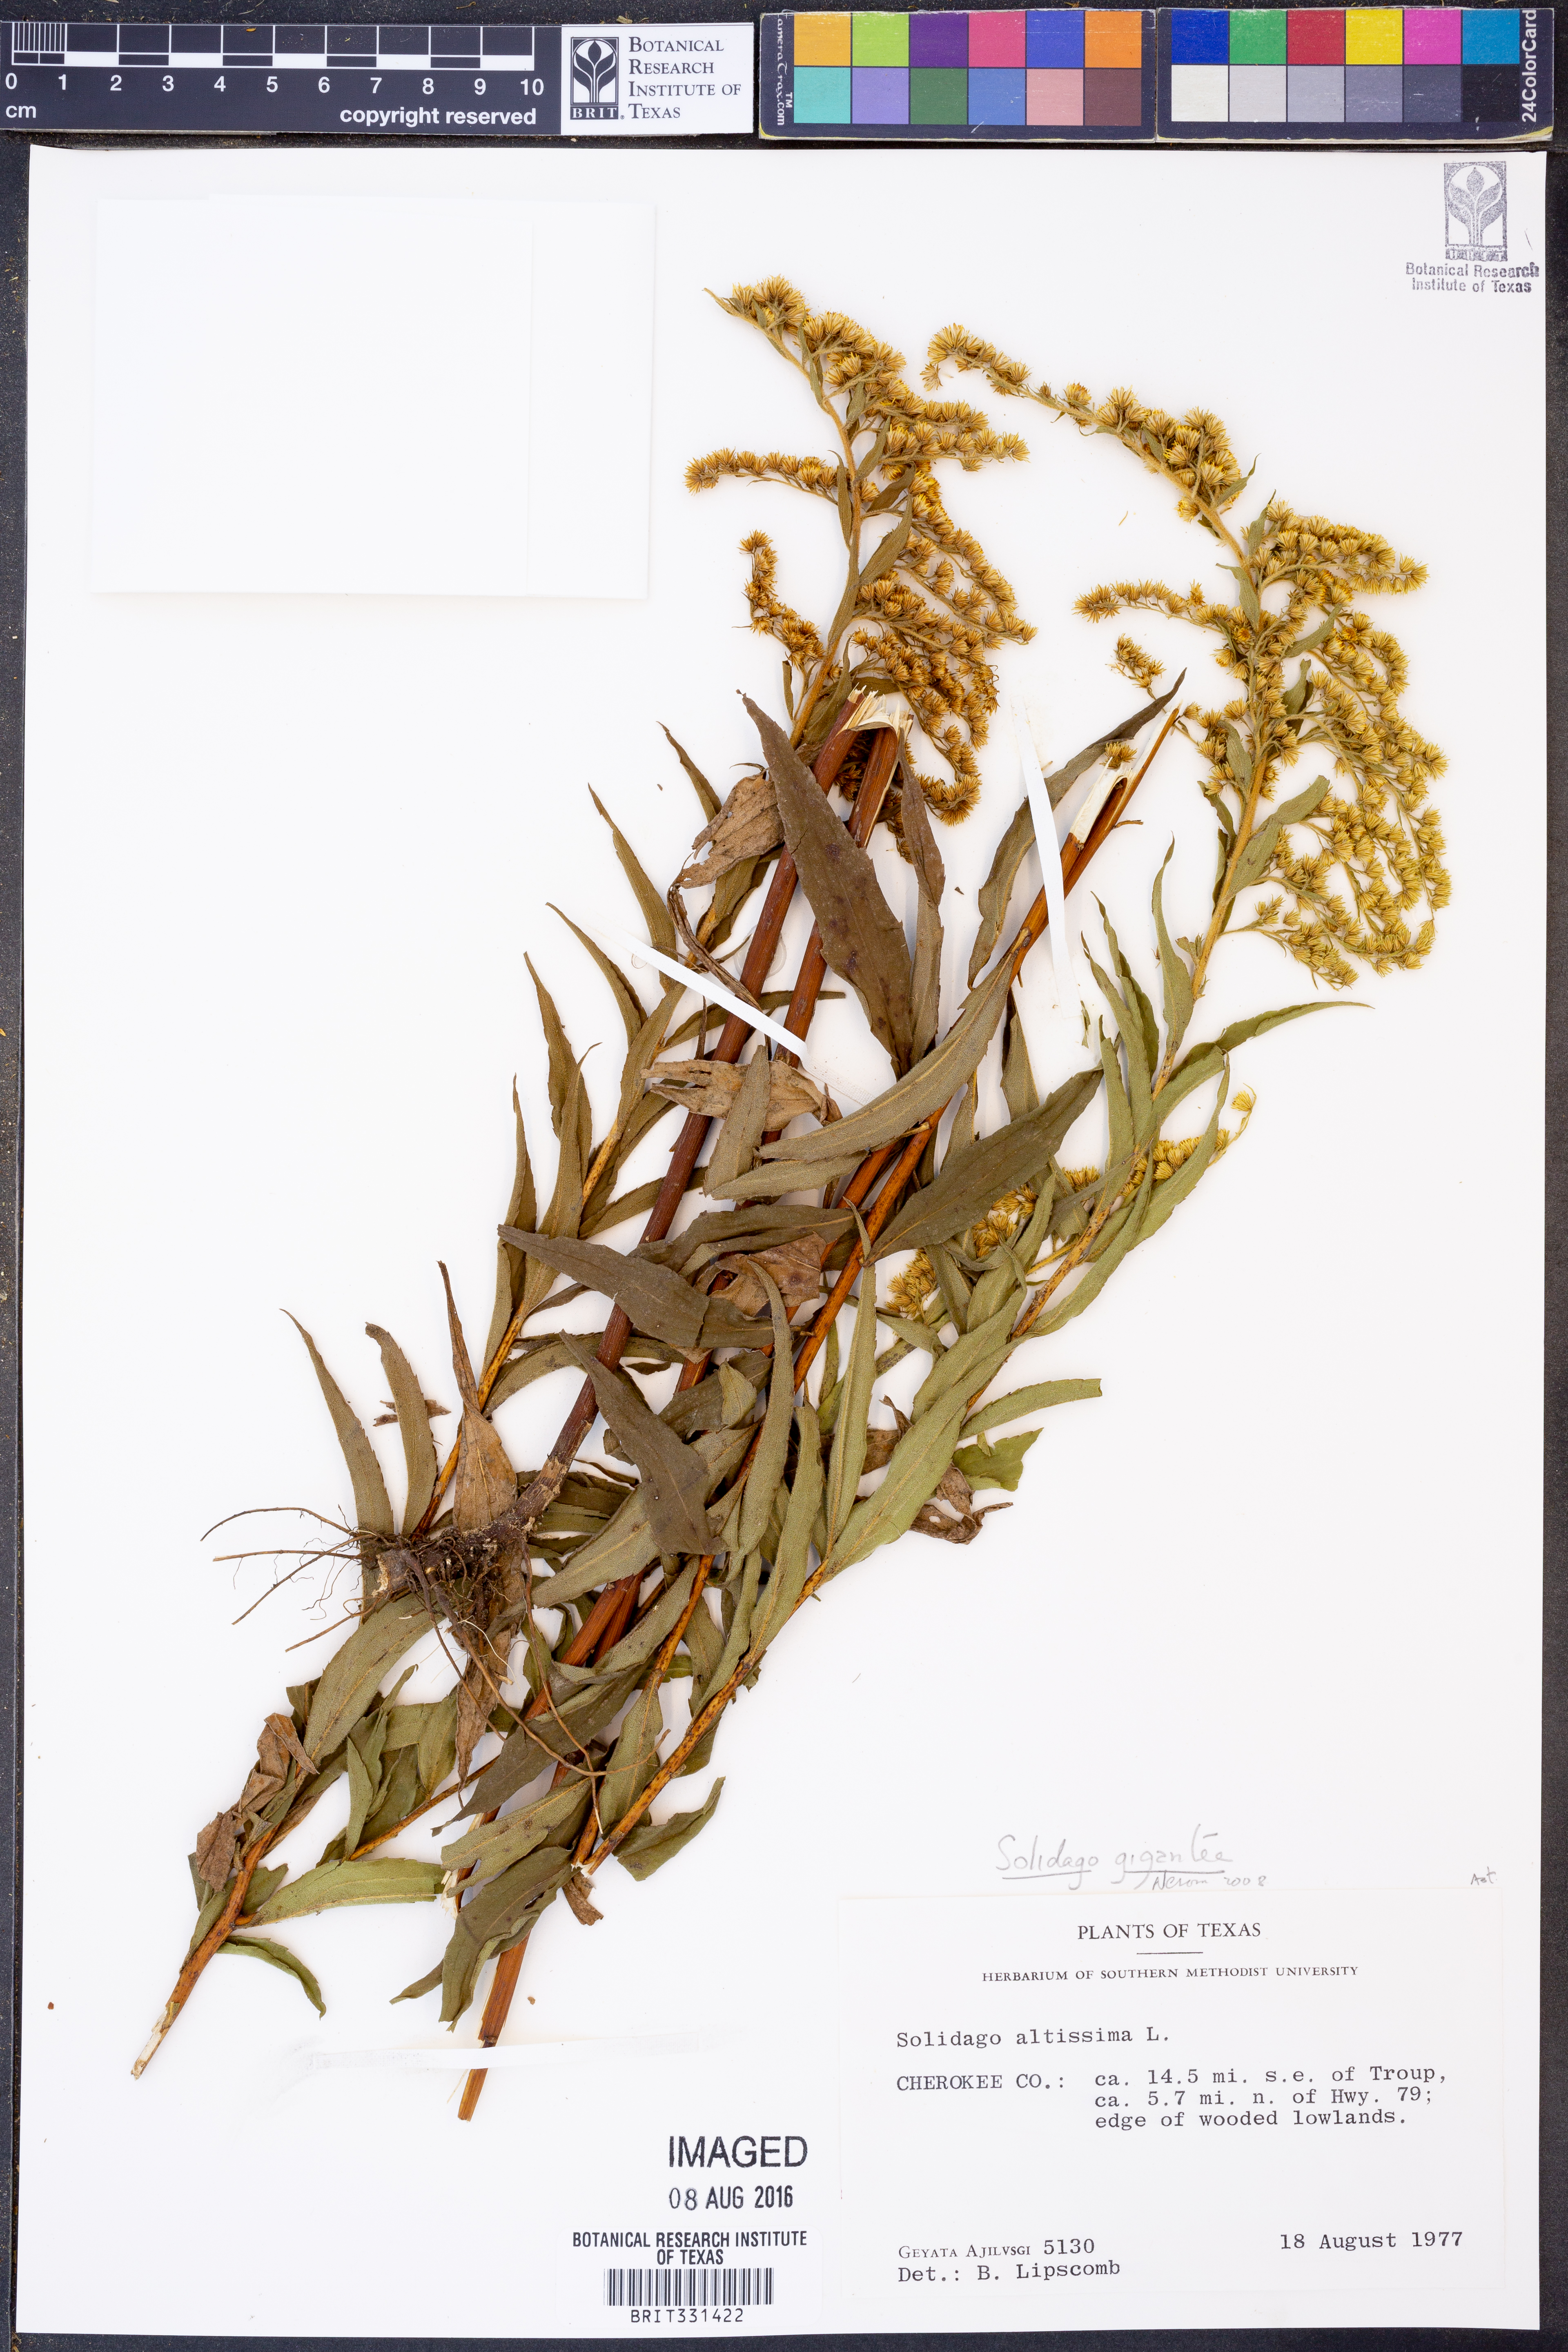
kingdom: Plantae
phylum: Tracheophyta
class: Magnoliopsida
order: Asterales
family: Asteraceae
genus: Solidago
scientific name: Solidago gigantea
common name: Giant goldenrod
